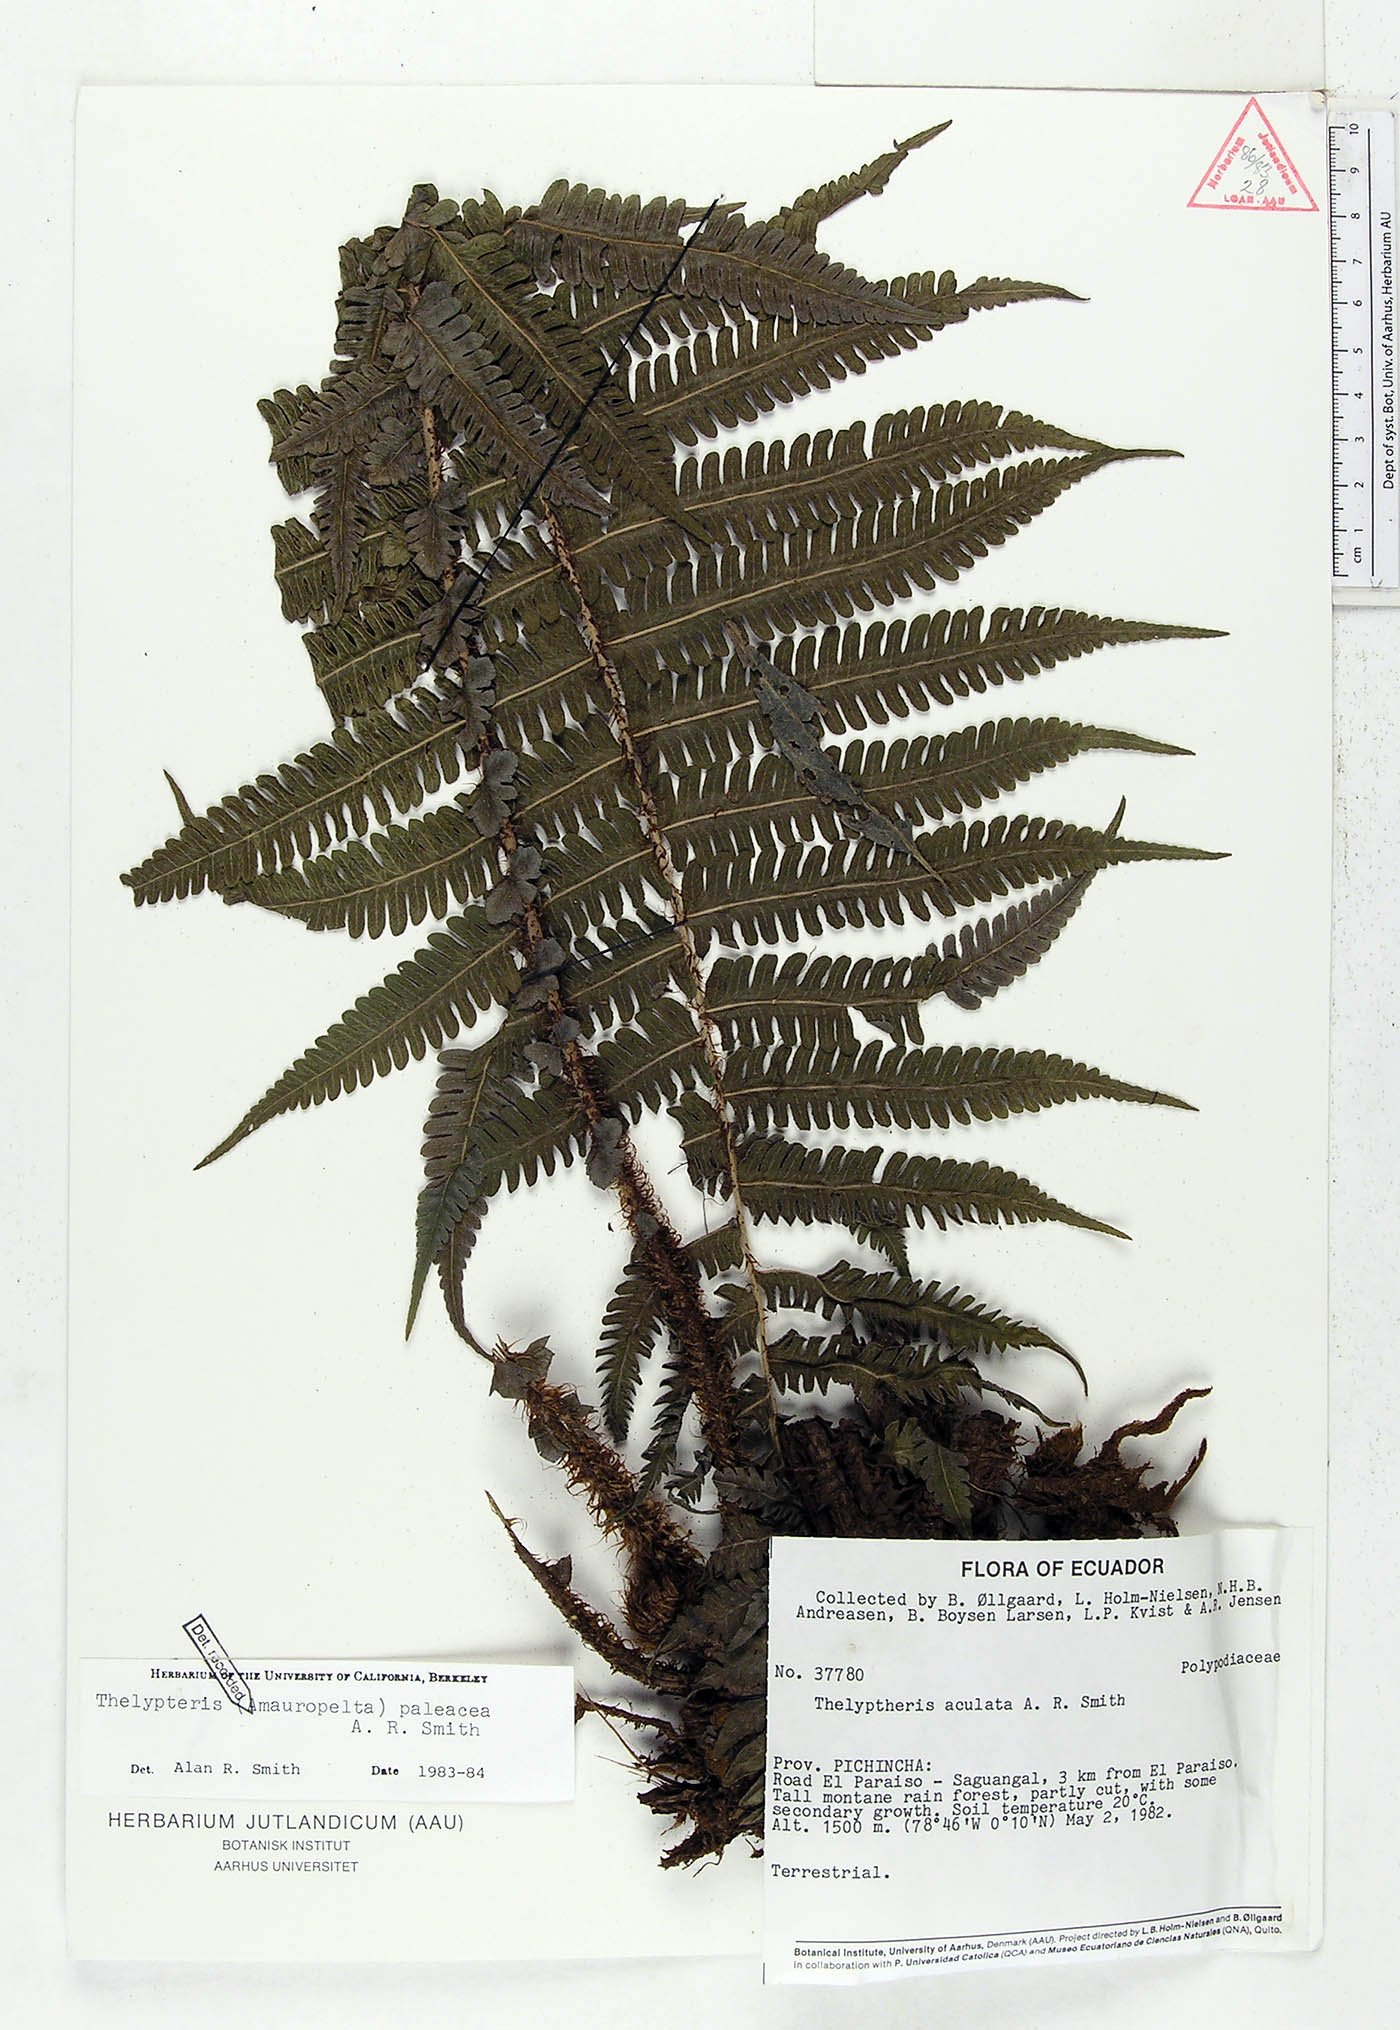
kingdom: Plantae
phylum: Tracheophyta
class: Polypodiopsida
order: Polypodiales
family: Thelypteridaceae
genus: Amauropelta
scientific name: Amauropelta paleacea
